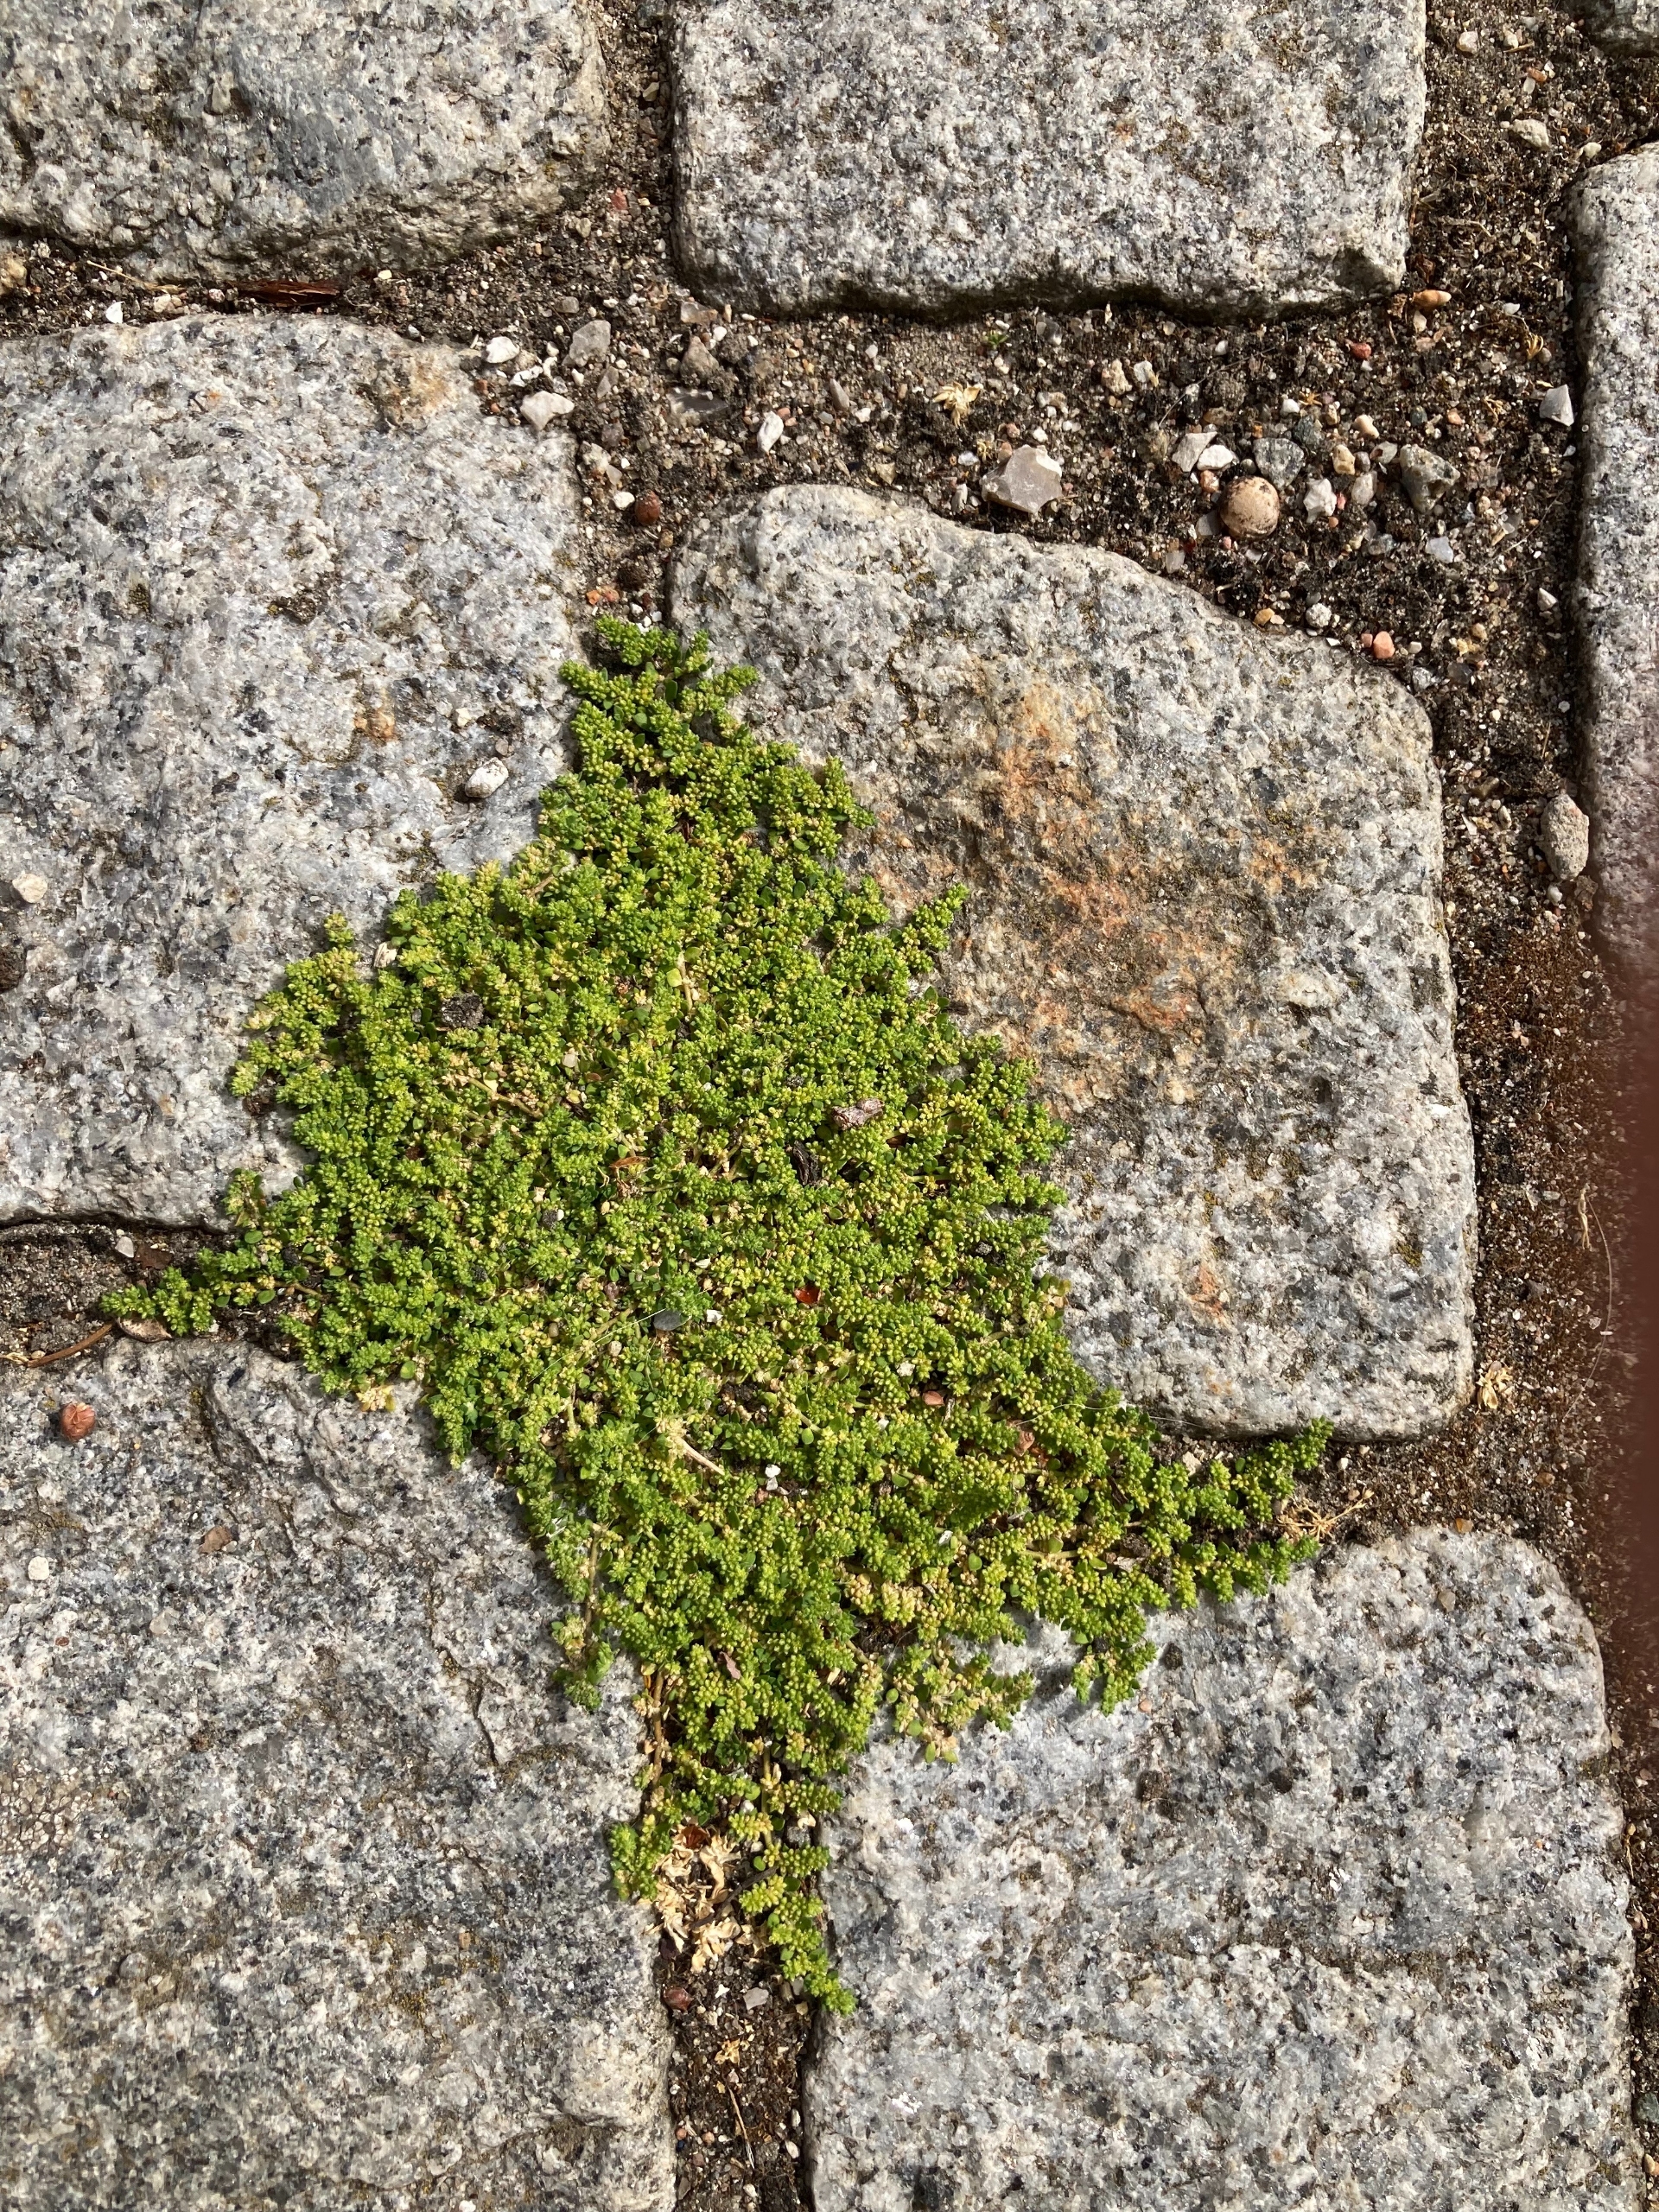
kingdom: Plantae
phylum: Tracheophyta
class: Magnoliopsida
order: Caryophyllales
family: Caryophyllaceae
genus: Herniaria
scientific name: Herniaria glabra
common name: Brudurt
